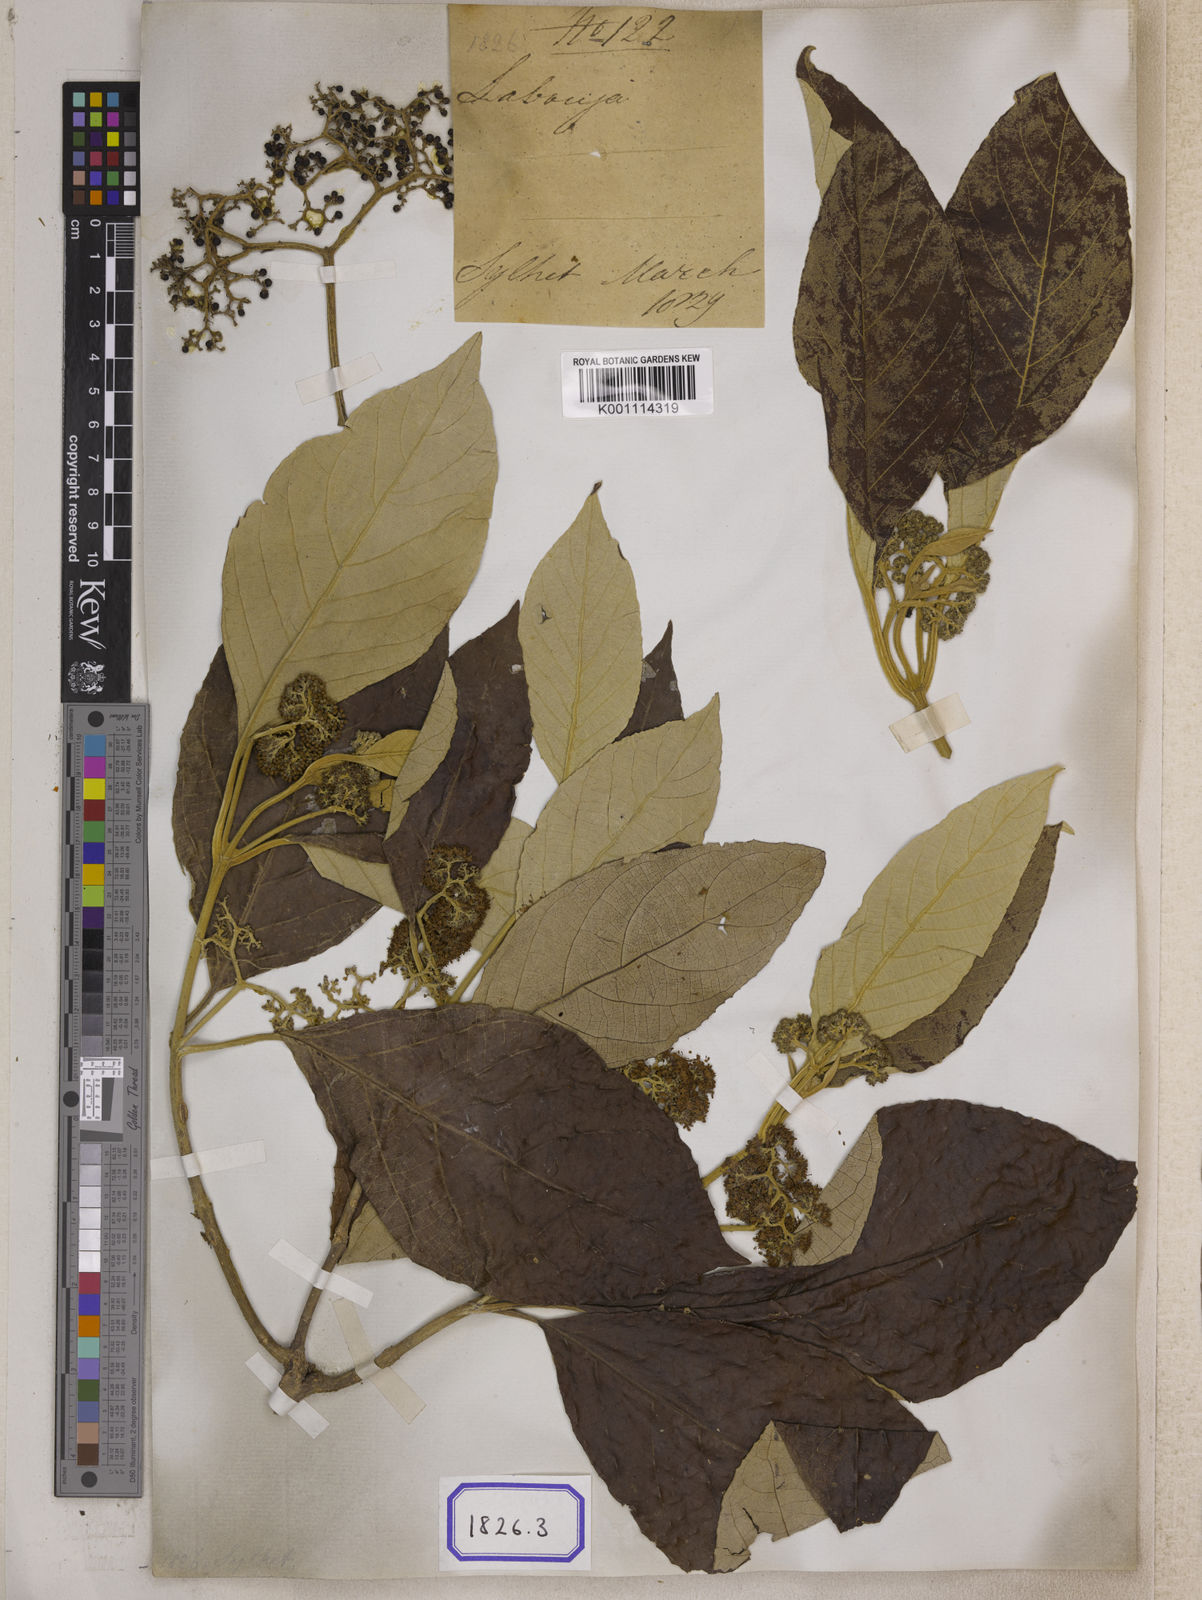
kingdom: Plantae
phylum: Tracheophyta
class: Magnoliopsida
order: Lamiales
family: Lamiaceae
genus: Callicarpa
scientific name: Callicarpa arborea
